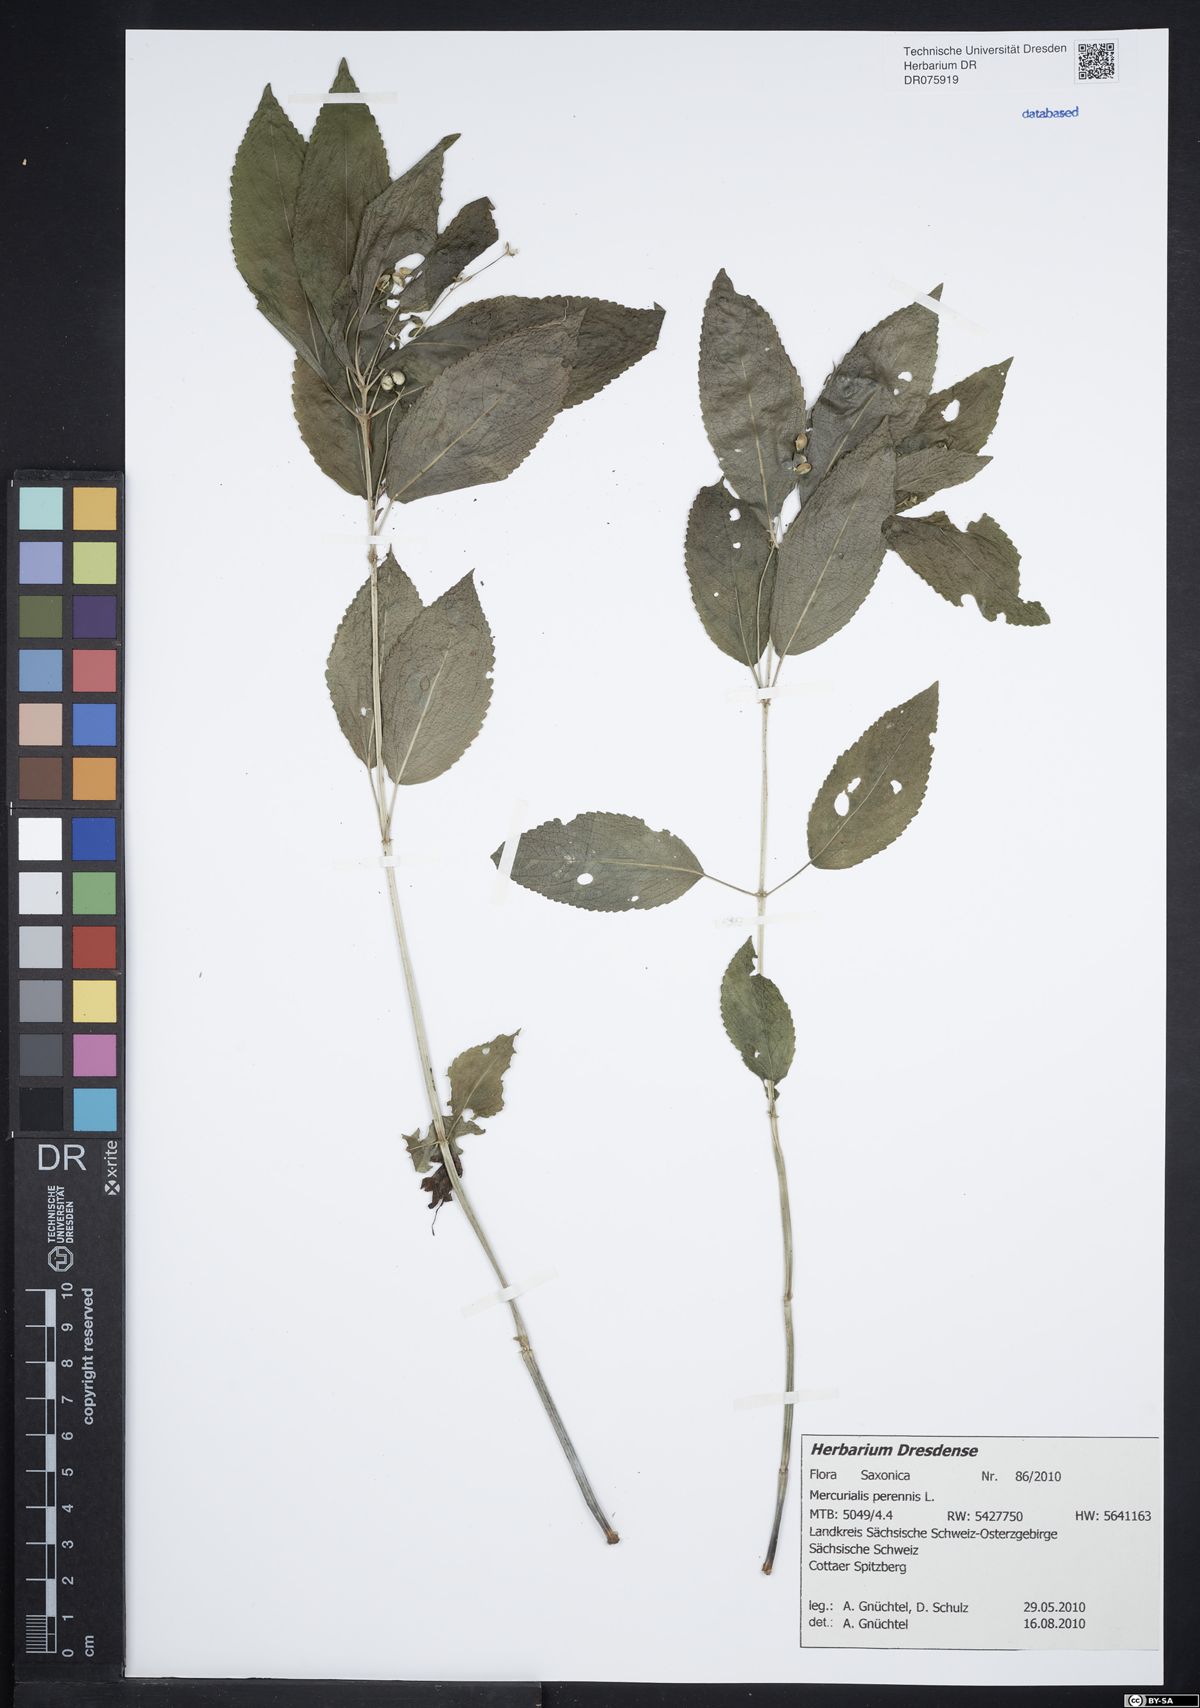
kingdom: Plantae
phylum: Tracheophyta
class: Magnoliopsida
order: Malpighiales
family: Euphorbiaceae
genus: Mercurialis
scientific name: Mercurialis perennis
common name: Dog mercury
